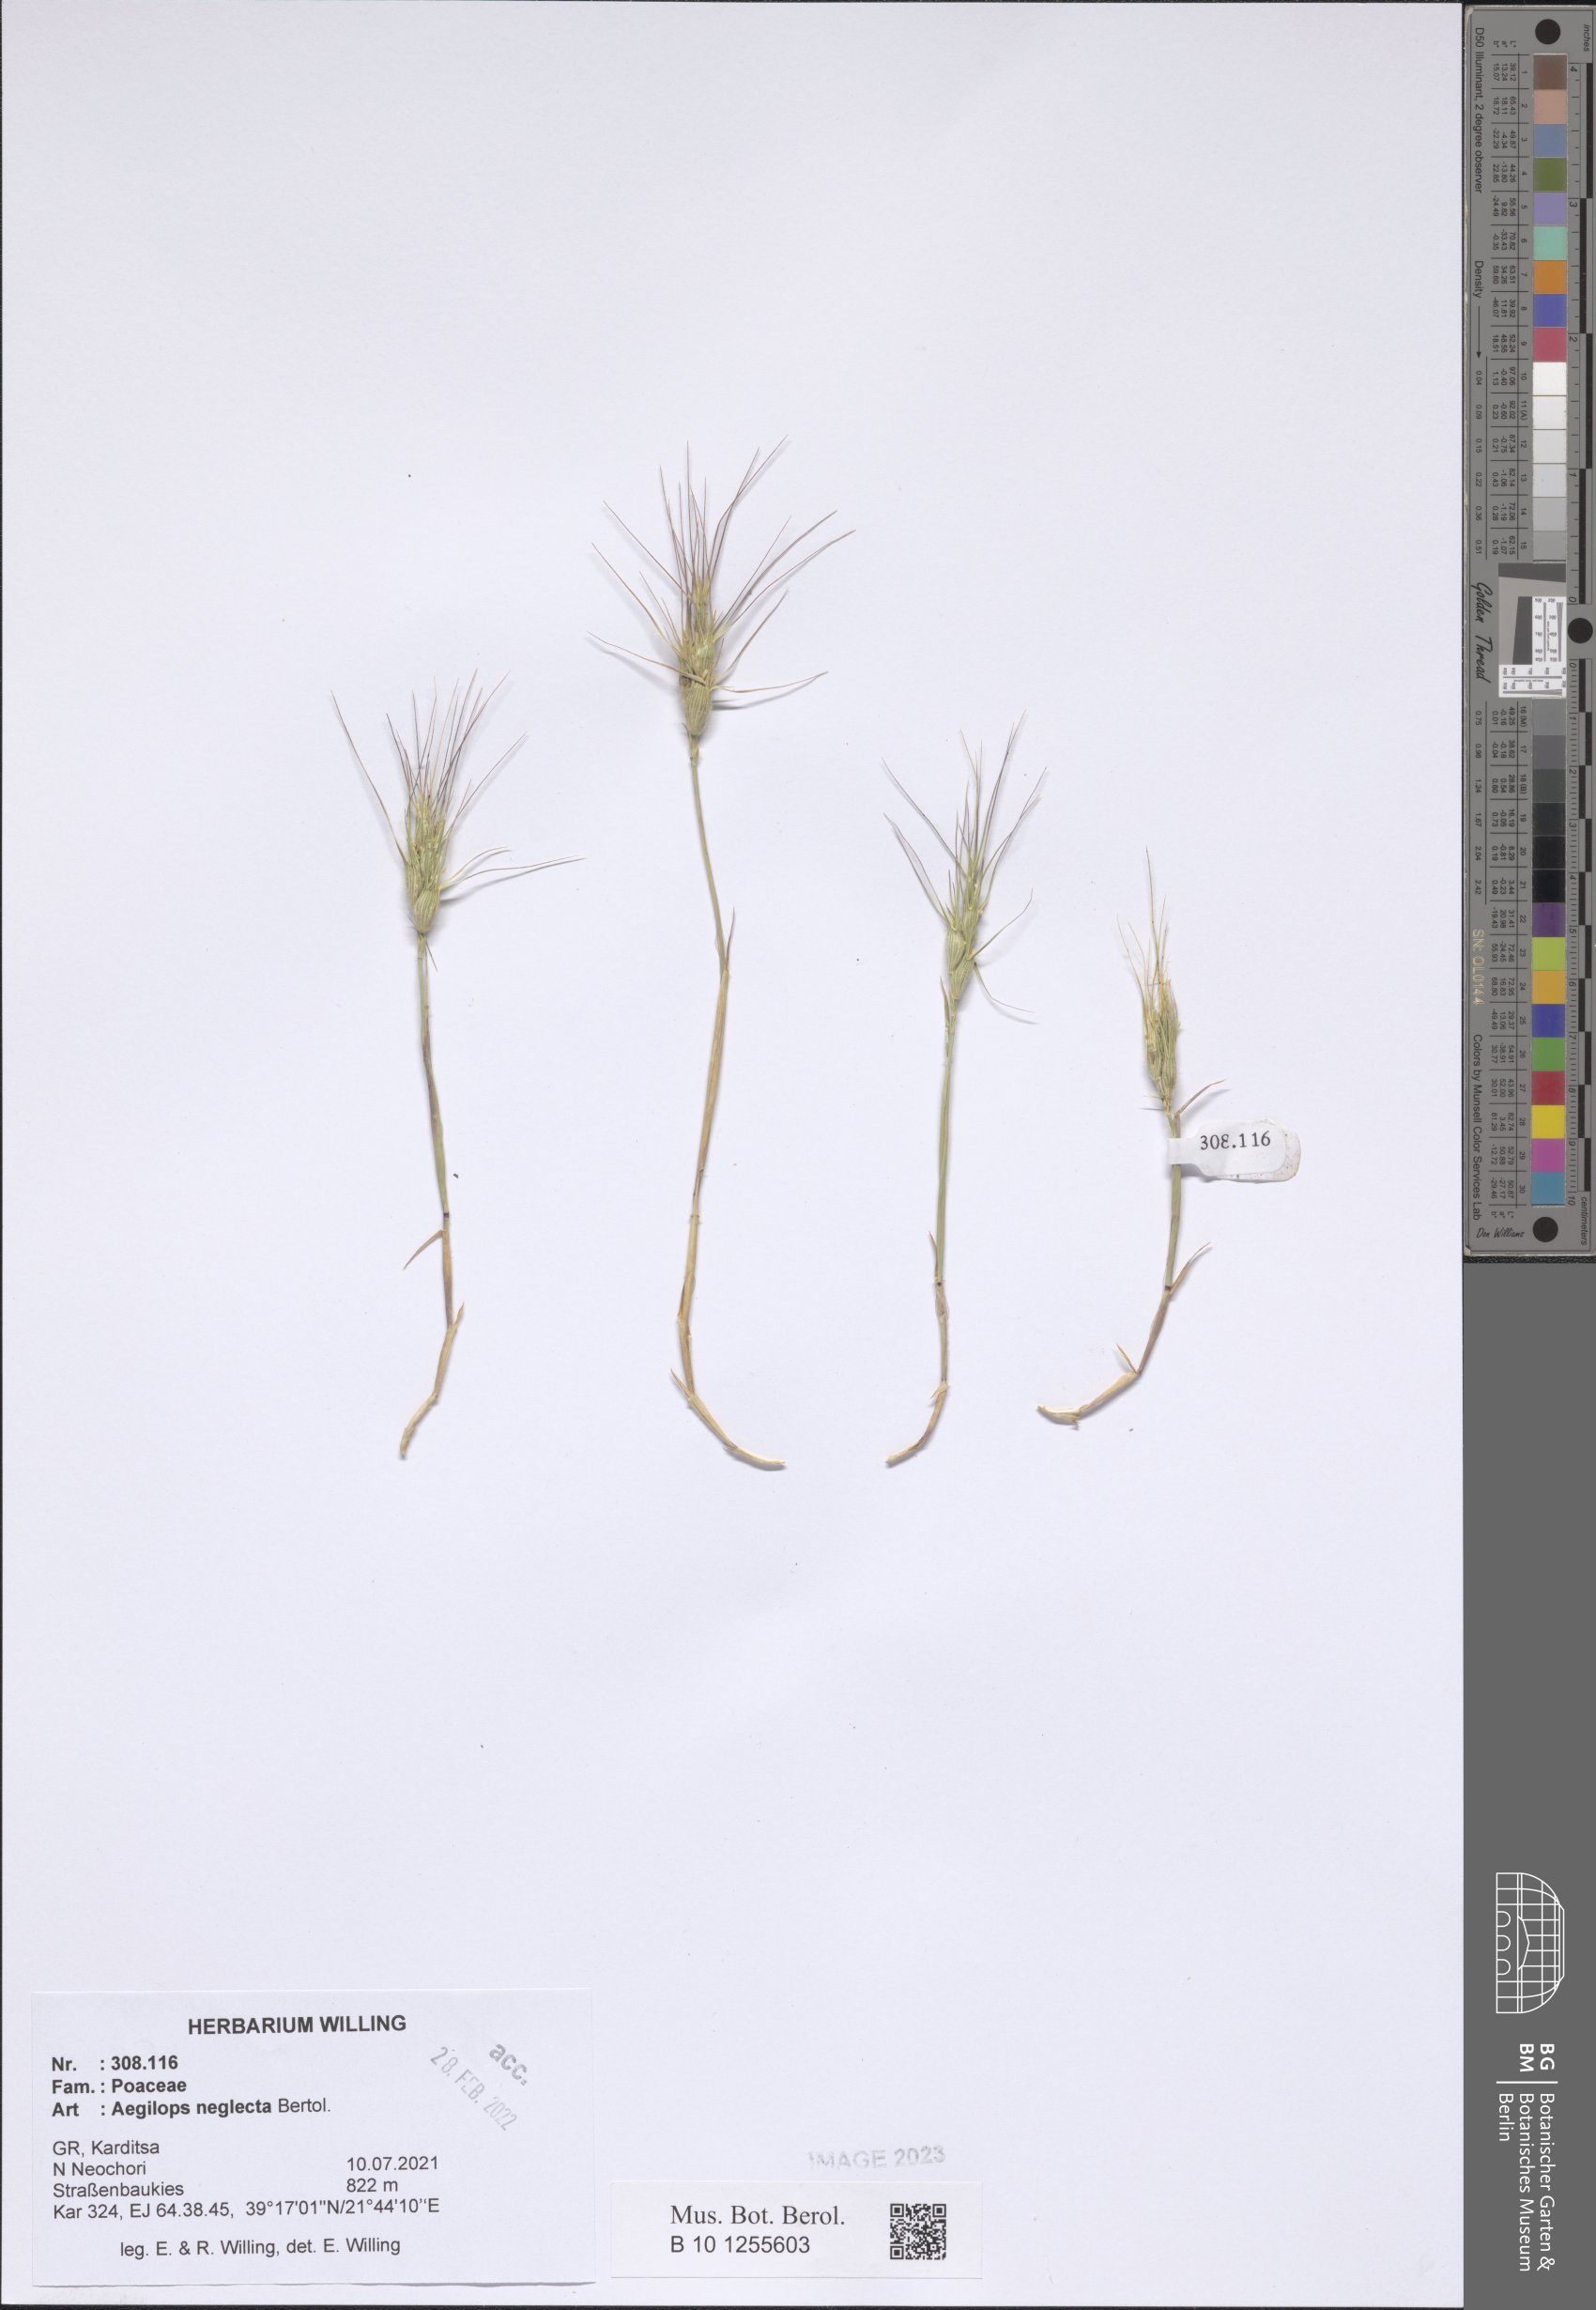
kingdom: Plantae
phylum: Tracheophyta
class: Liliopsida
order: Poales
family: Poaceae
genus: Aegilops
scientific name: Aegilops neglecta
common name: Three-awn goat grass
